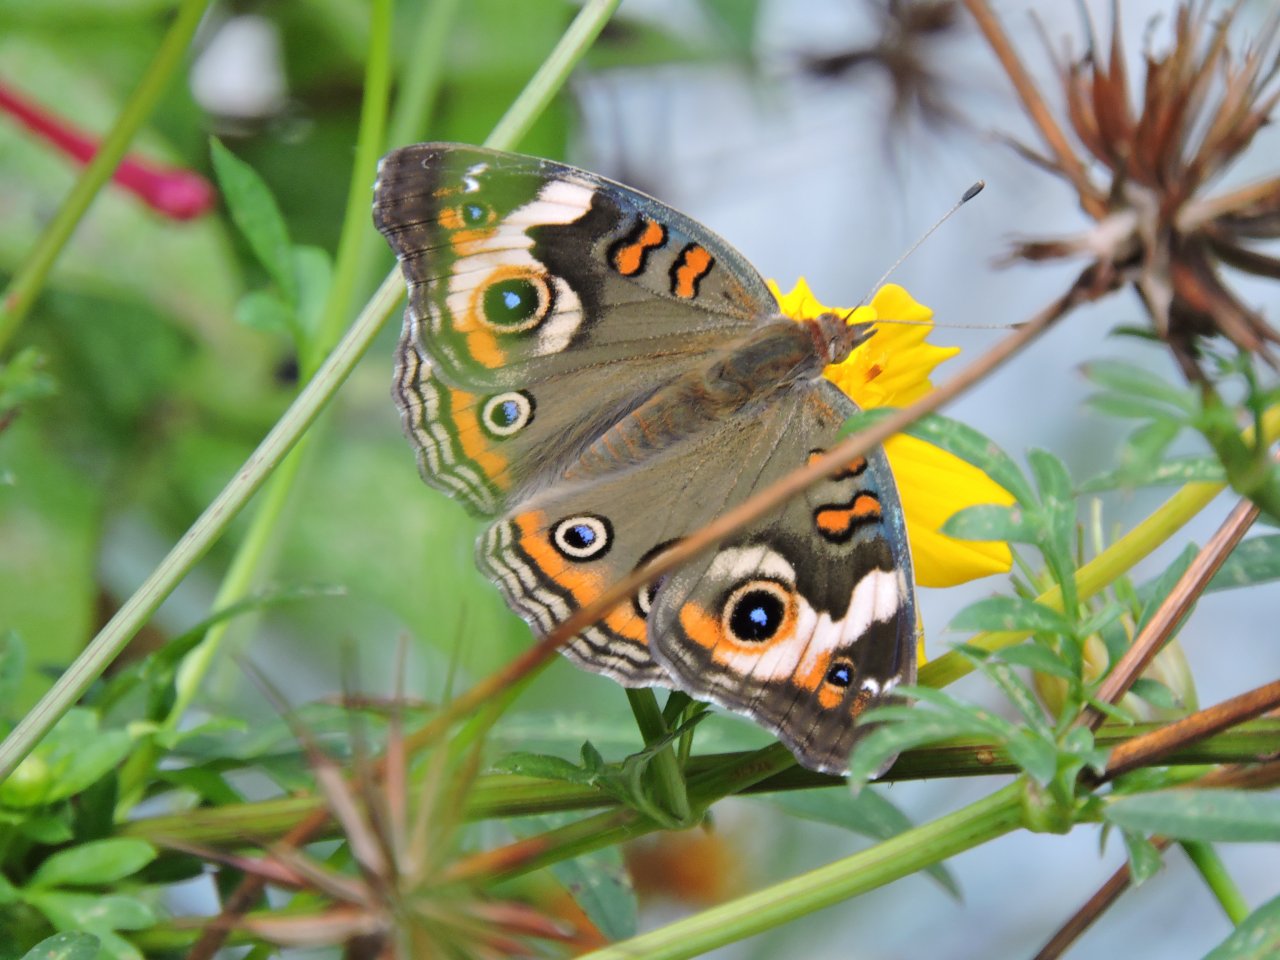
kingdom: Animalia
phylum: Arthropoda
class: Insecta
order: Lepidoptera
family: Nymphalidae
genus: Junonia
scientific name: Junonia coenia
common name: Common Buckeye
